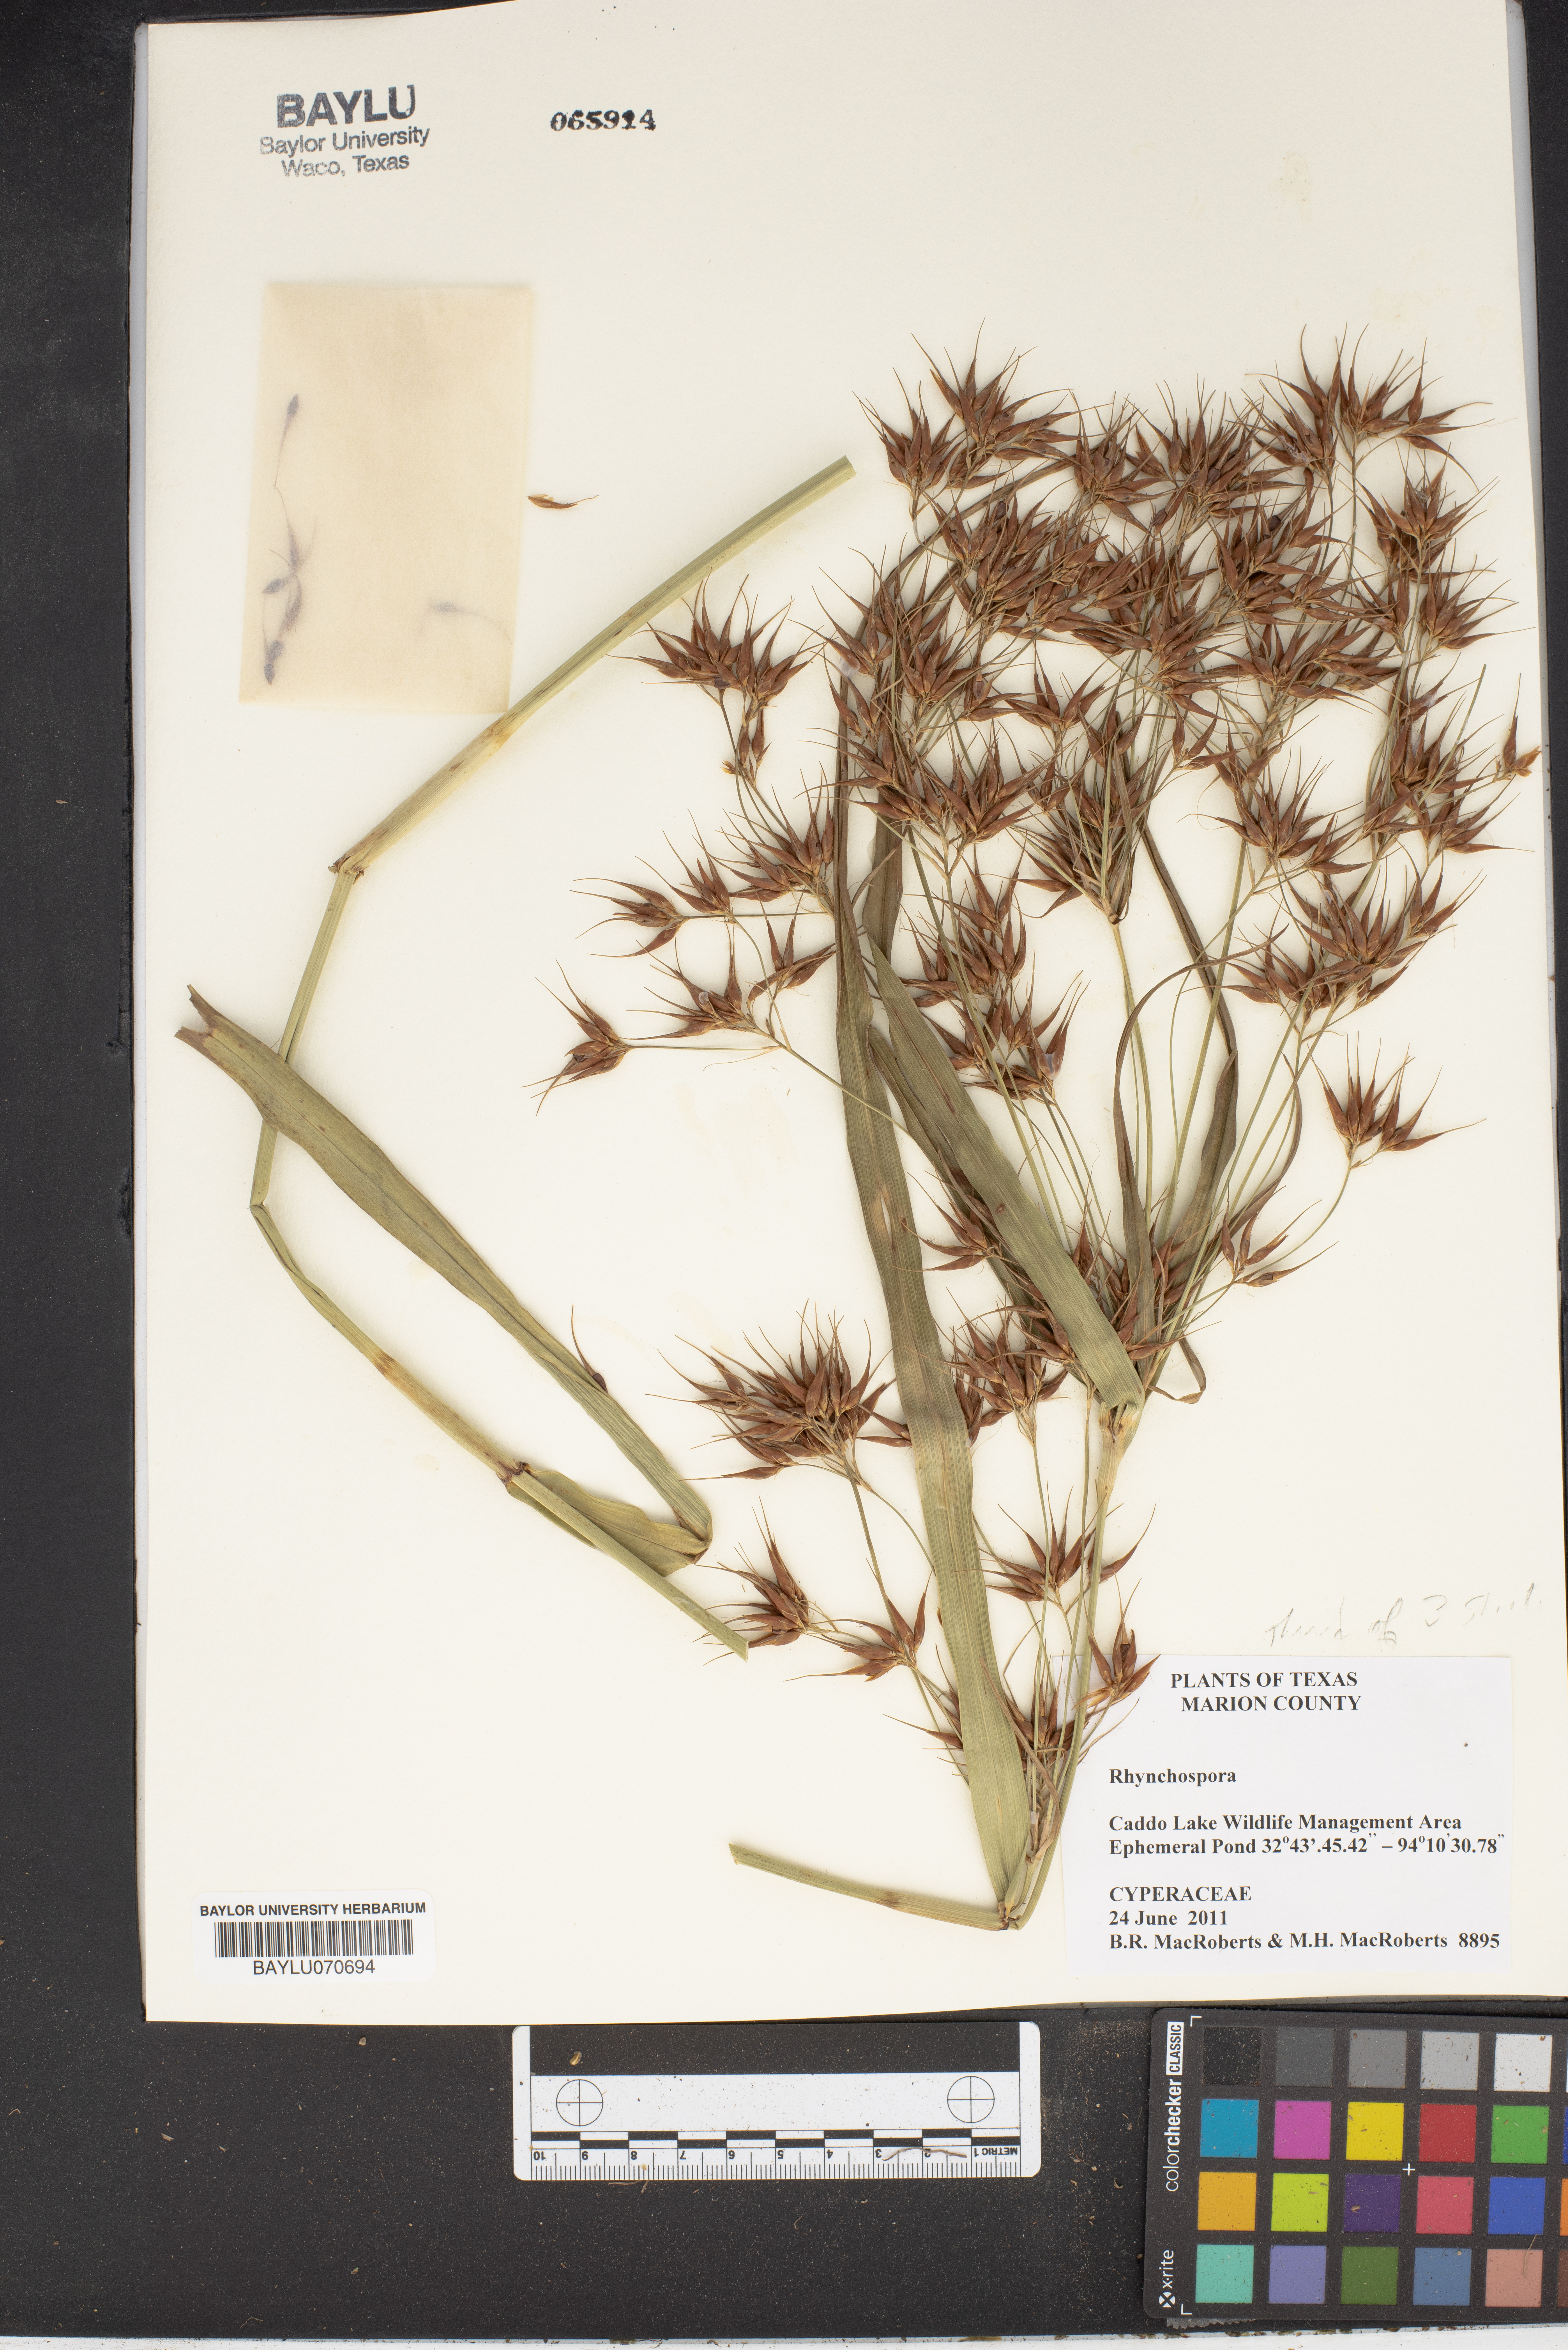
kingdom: Plantae
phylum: Tracheophyta
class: Liliopsida
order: Poales
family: Cyperaceae
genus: Rhynchospora
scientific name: Rhynchospora
